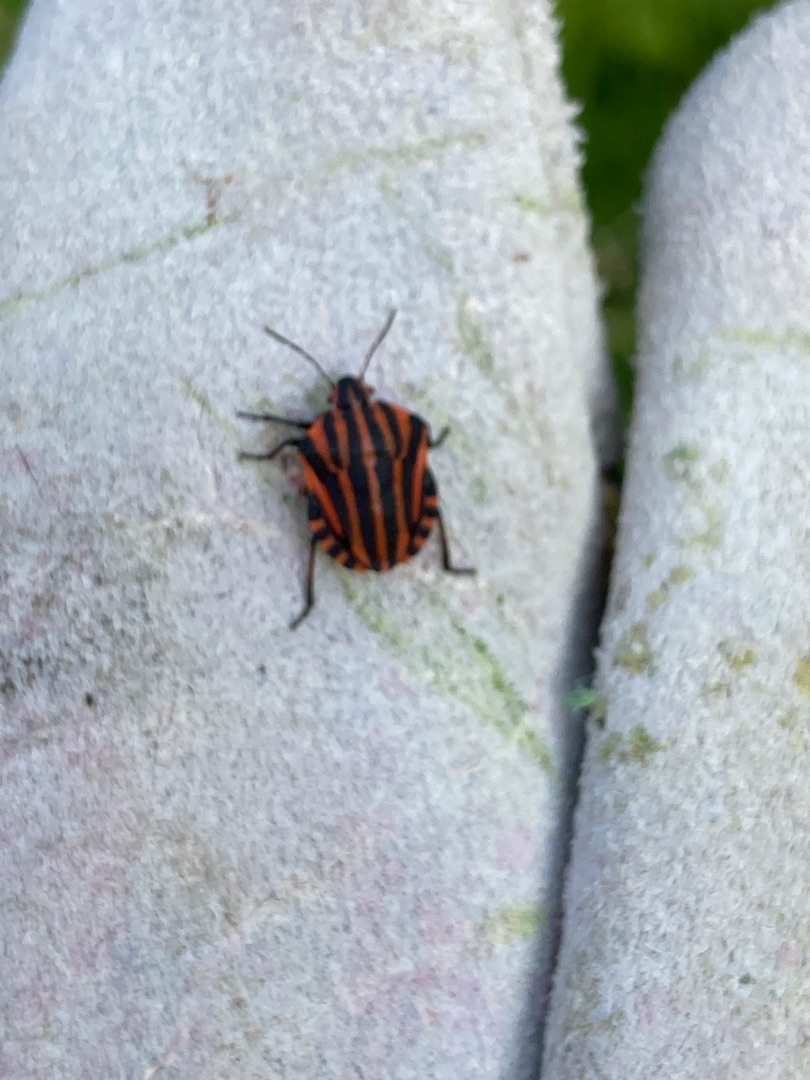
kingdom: Animalia
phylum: Arthropoda
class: Insecta
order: Hemiptera
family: Pentatomidae
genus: Graphosoma
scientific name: Graphosoma italicum
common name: Stribetæge
